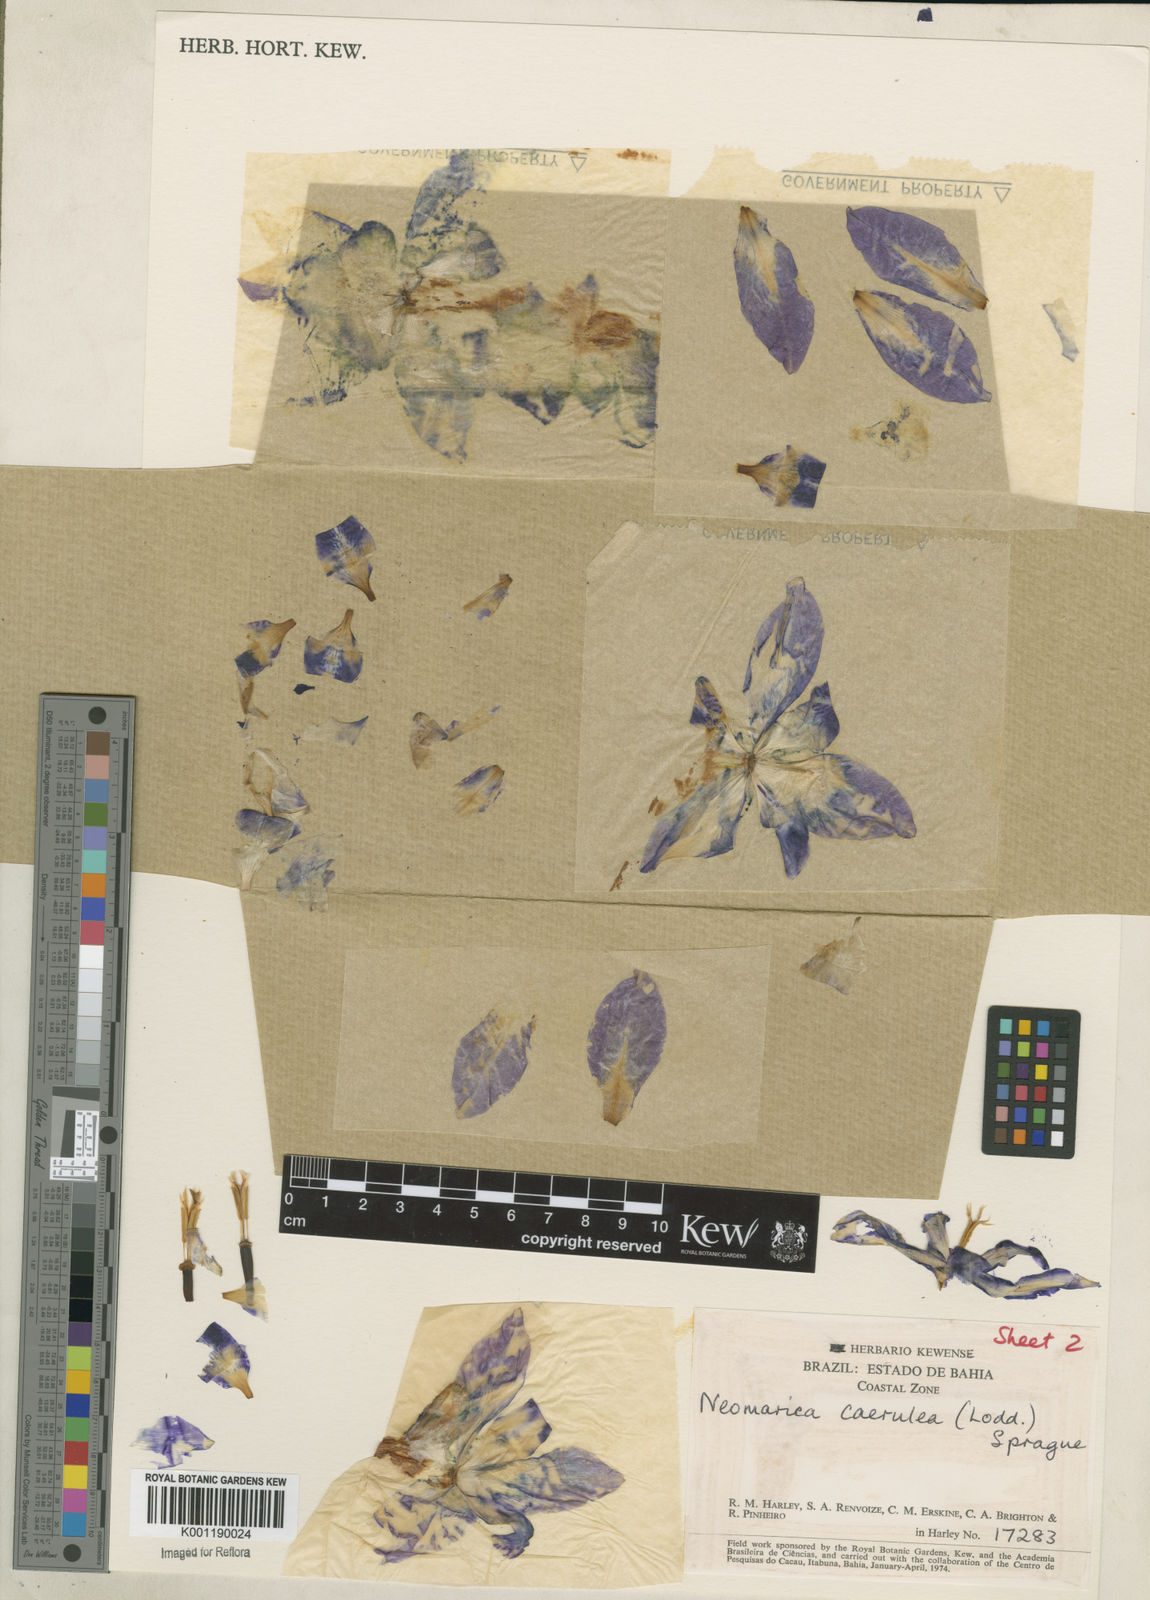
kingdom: Plantae
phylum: Tracheophyta
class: Liliopsida
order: Asparagales
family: Iridaceae
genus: Trimezia
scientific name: Trimezia
